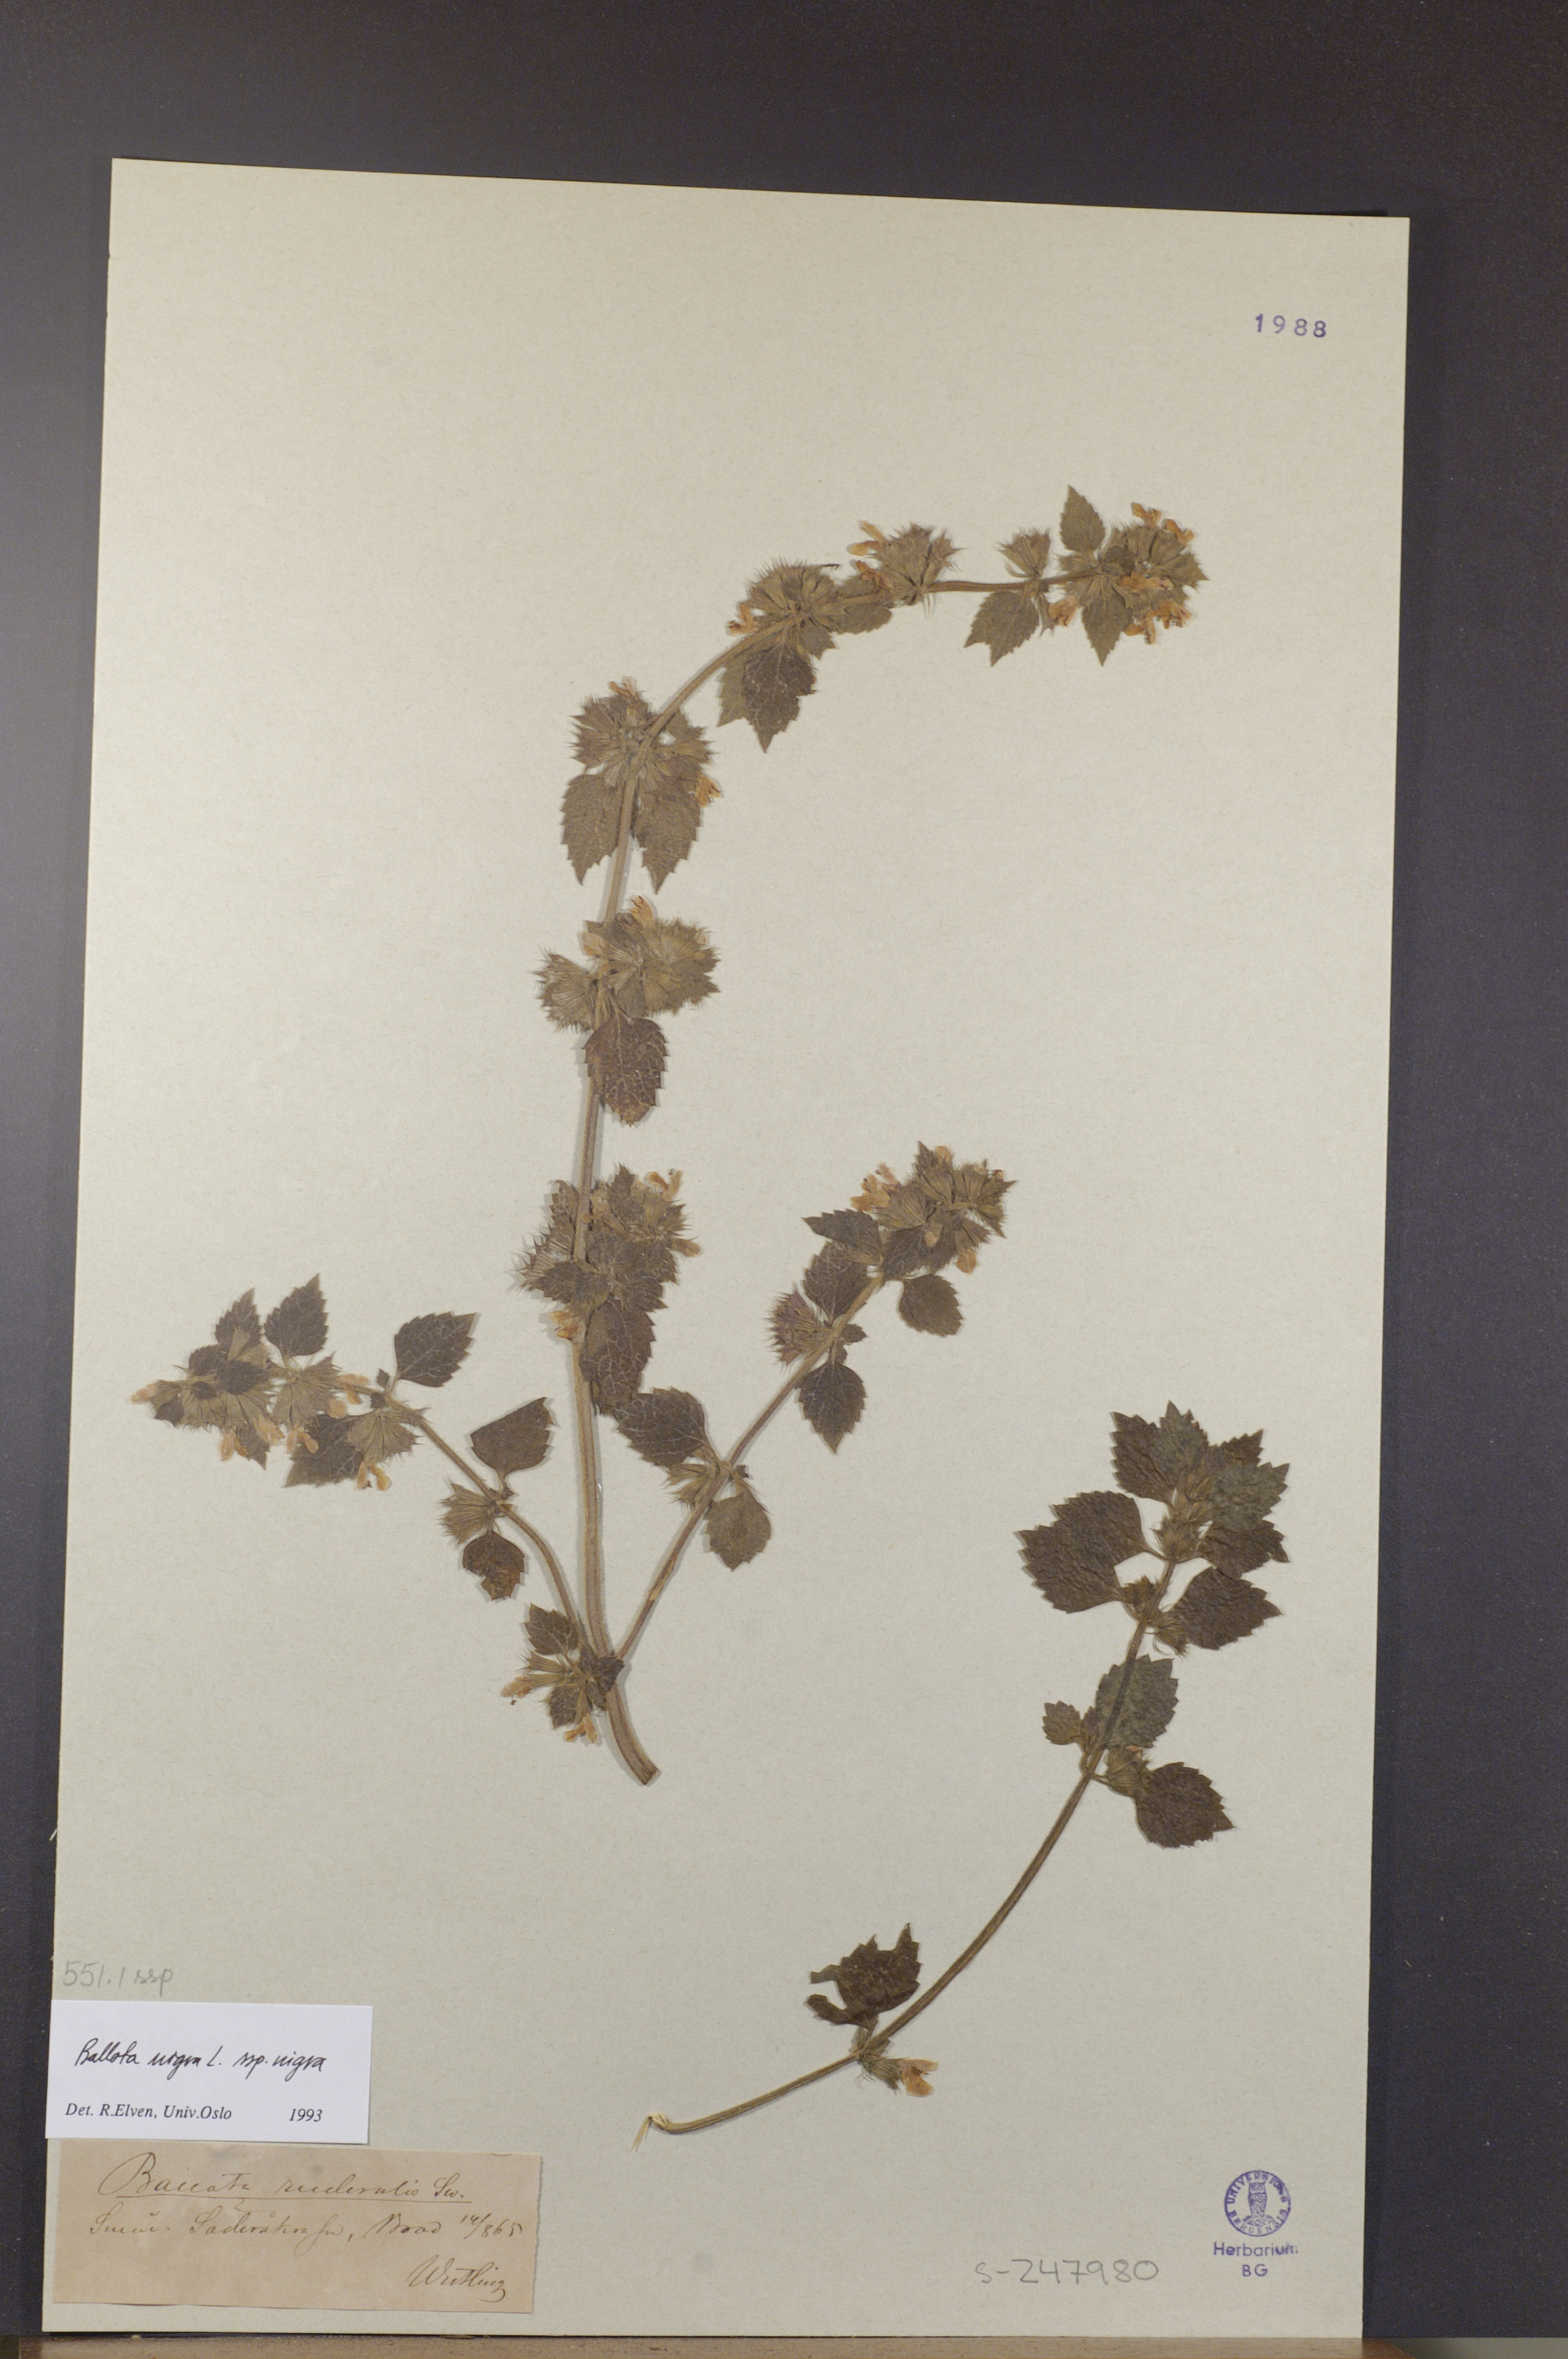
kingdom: Plantae
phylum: Tracheophyta
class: Magnoliopsida
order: Lamiales
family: Lamiaceae
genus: Ballota
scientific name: Ballota nigra
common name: Black horehound
